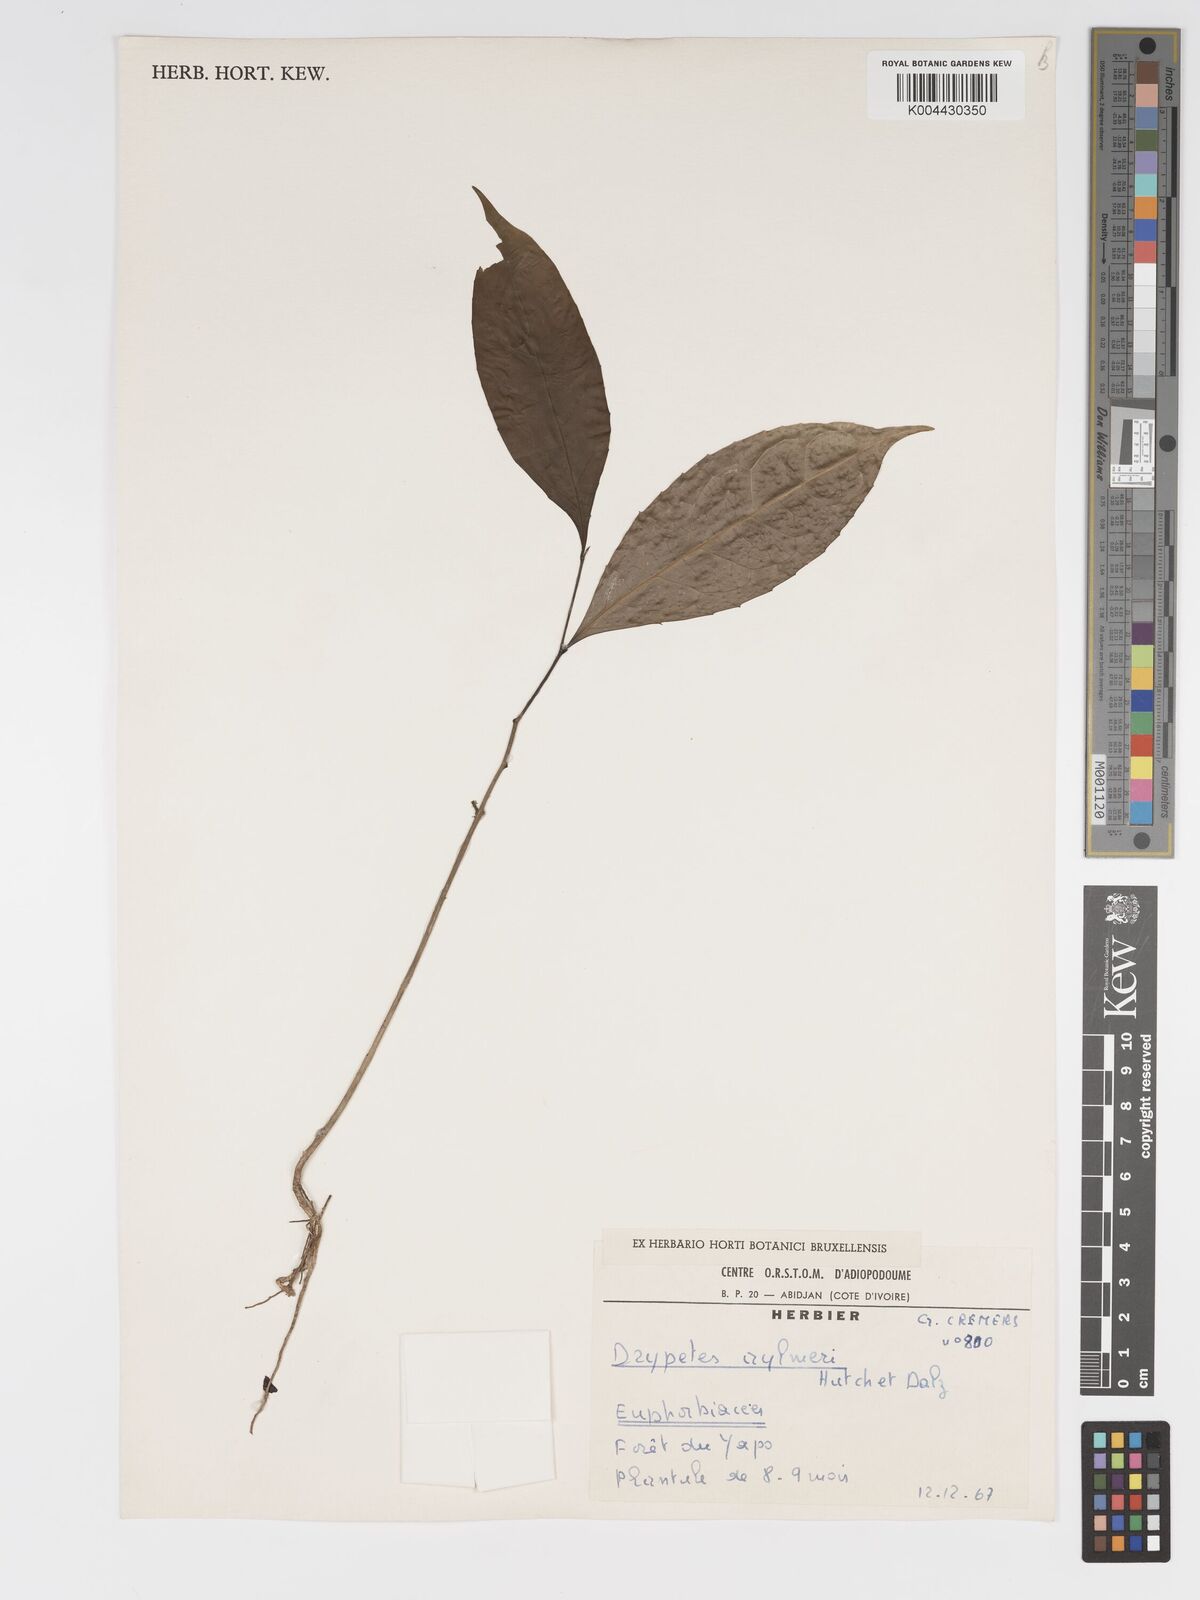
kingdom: Plantae
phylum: Tracheophyta
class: Magnoliopsida
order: Malpighiales
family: Putranjivaceae
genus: Drypetes
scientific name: Drypetes aylmeri
